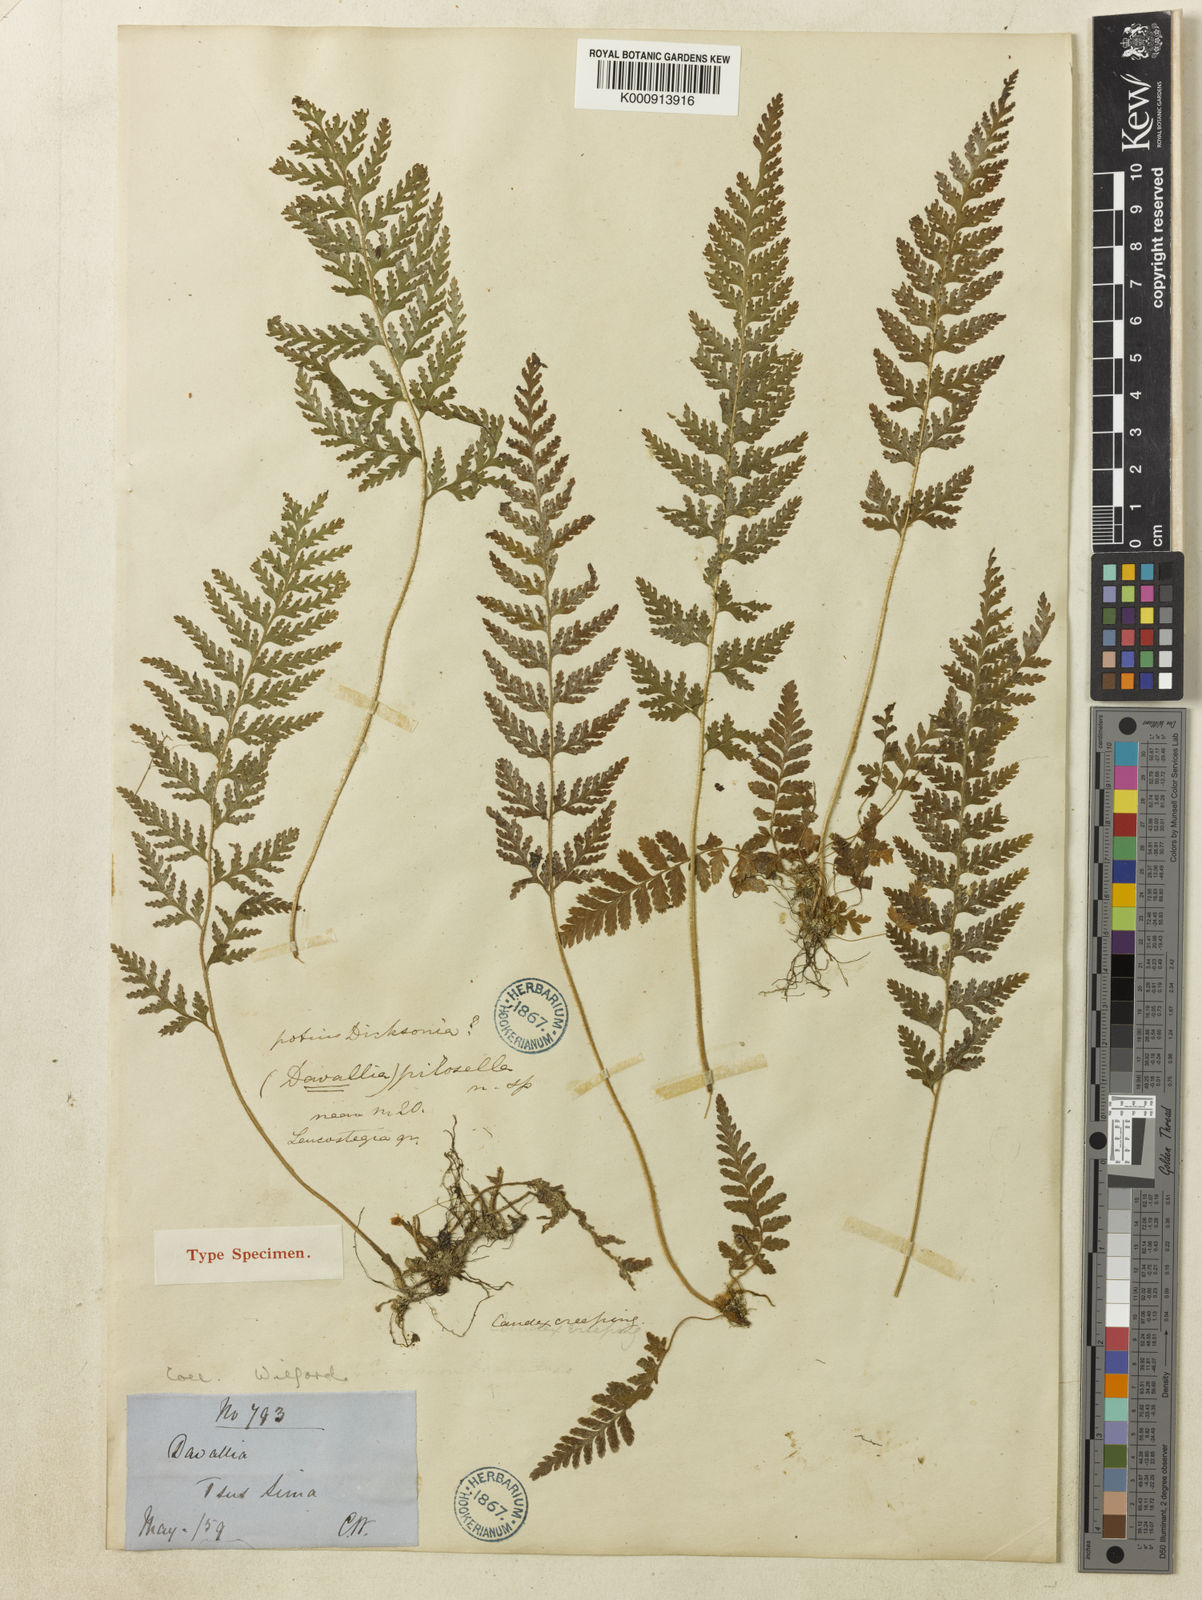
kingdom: Plantae
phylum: Tracheophyta
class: Polypodiopsida
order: Polypodiales
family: Dennstaedtiaceae
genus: Sitobolium
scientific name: Sitobolium hirsutum
